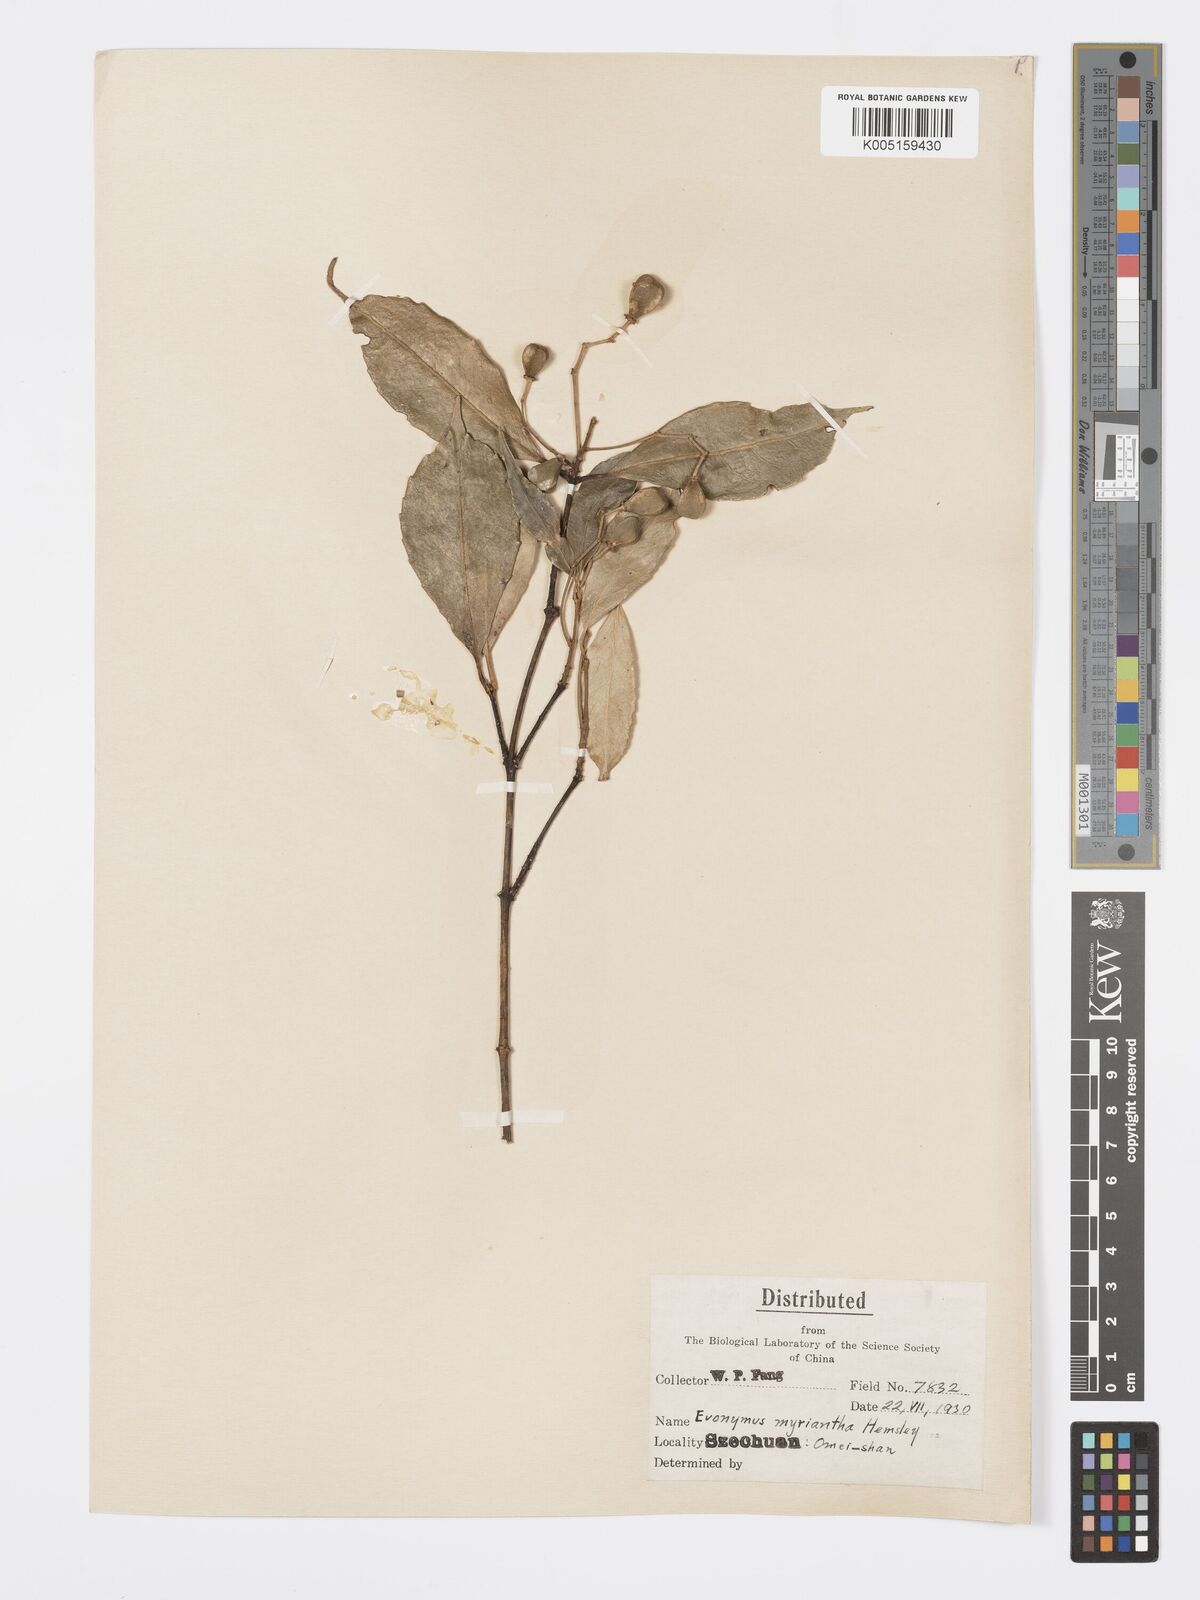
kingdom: Plantae
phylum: Tracheophyta
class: Magnoliopsida
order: Celastrales
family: Celastraceae
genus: Euonymus
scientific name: Euonymus myrianthus
